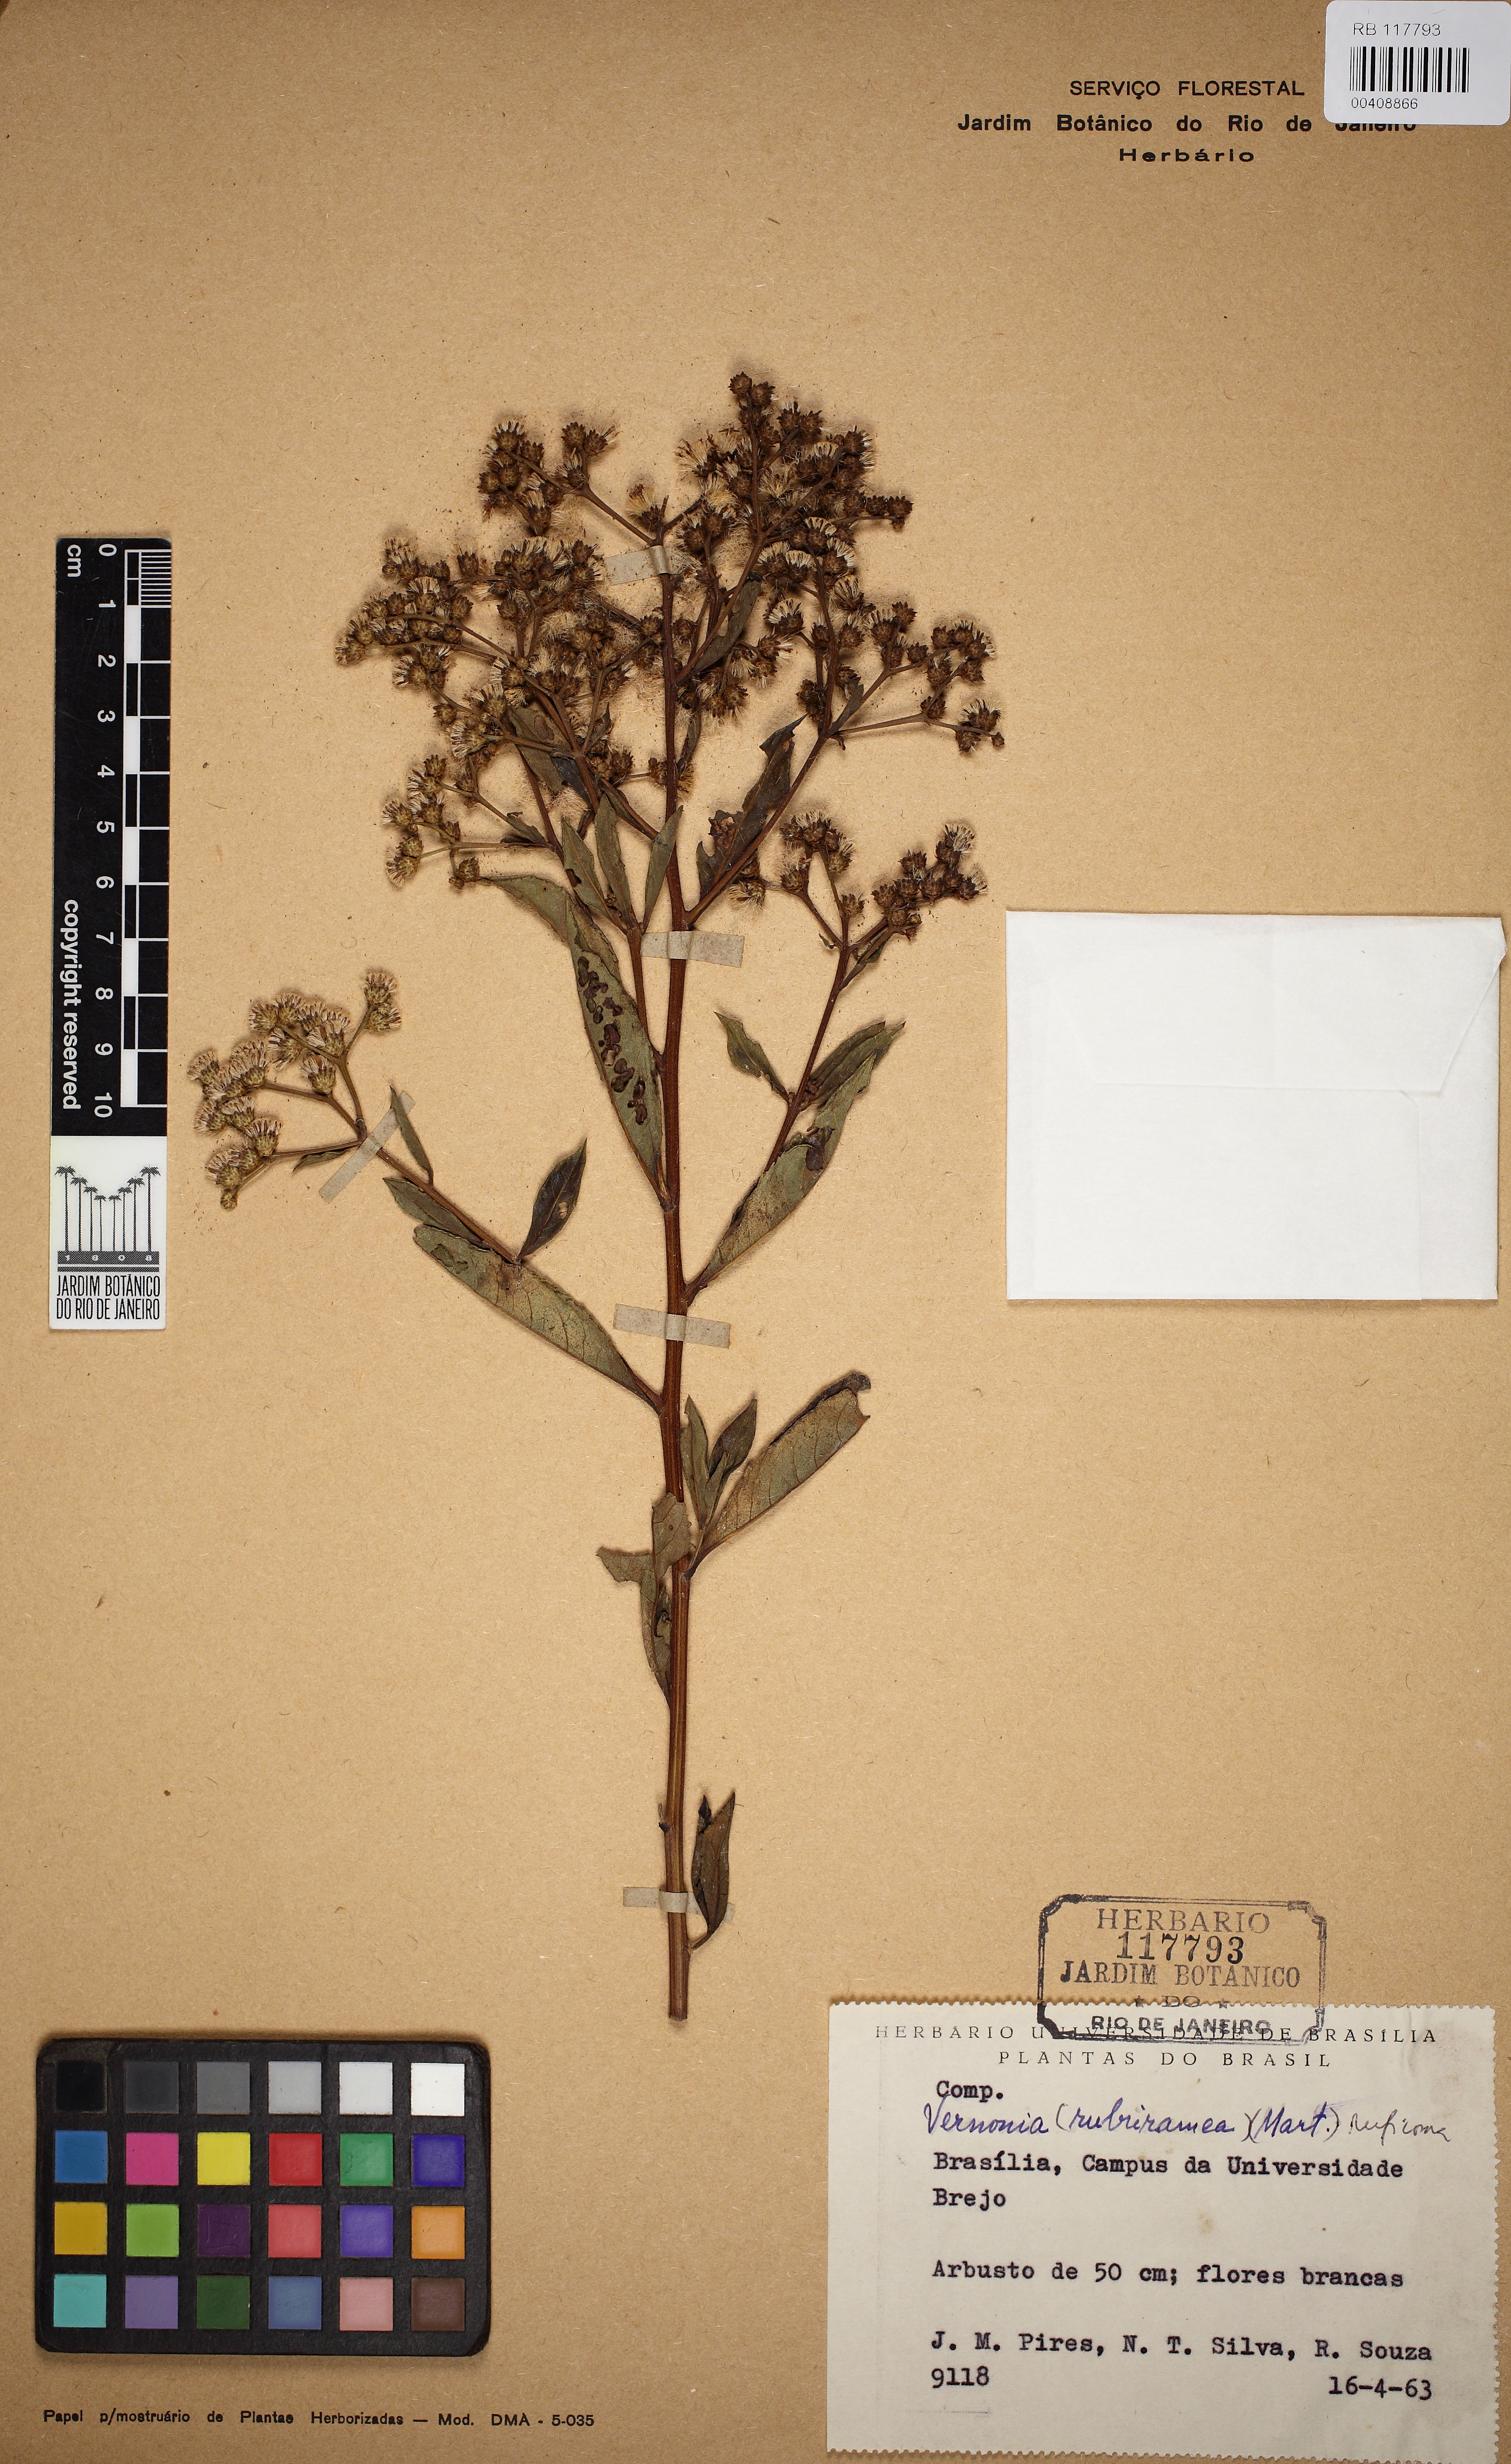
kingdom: Plantae
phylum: Tracheophyta
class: Magnoliopsida
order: Asterales
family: Asteraceae
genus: Vernonanthura
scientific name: Vernonanthura membranacea
